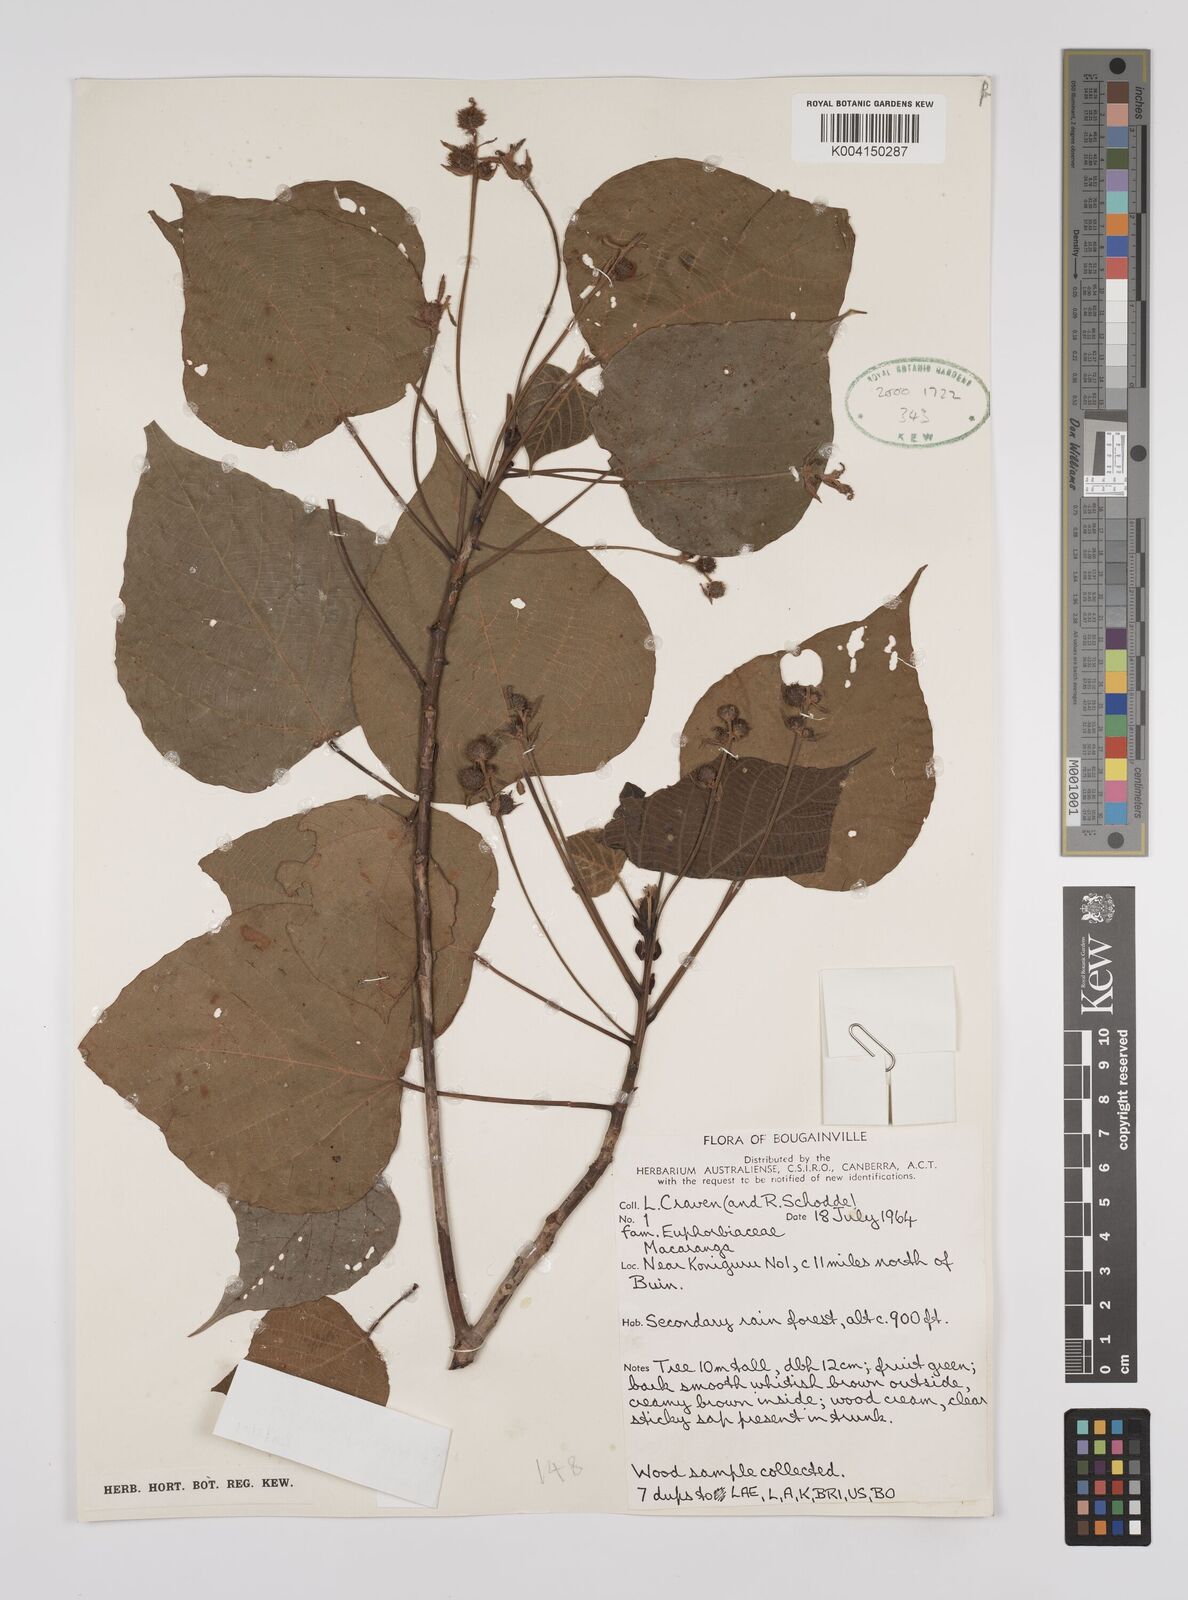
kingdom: Plantae
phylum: Tracheophyta
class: Magnoliopsida
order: Malpighiales
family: Euphorbiaceae
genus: Macaranga
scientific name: Macaranga dioica
